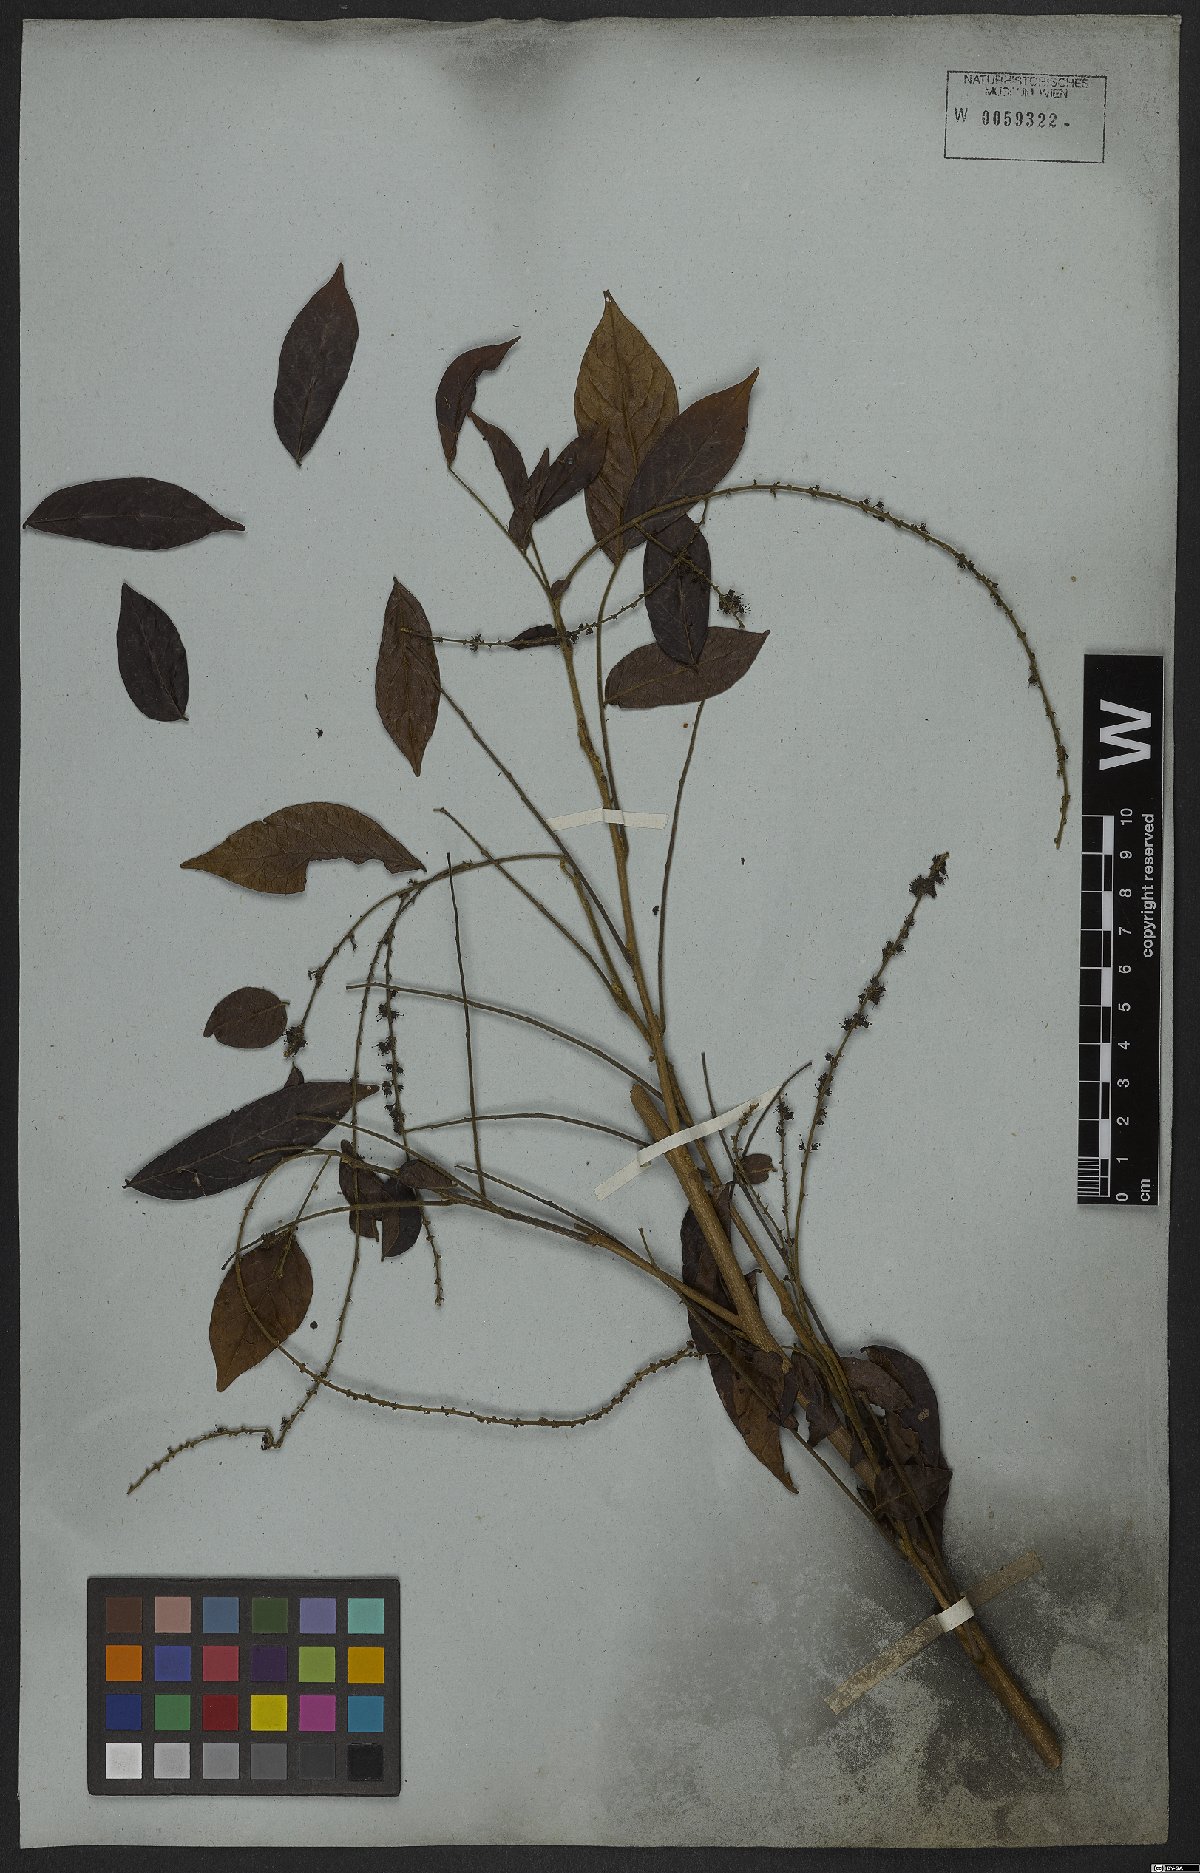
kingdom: Plantae
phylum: Tracheophyta
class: Magnoliopsida
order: Picramniales
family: Picramniaceae
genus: Picramnia
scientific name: Picramnia sellowii
